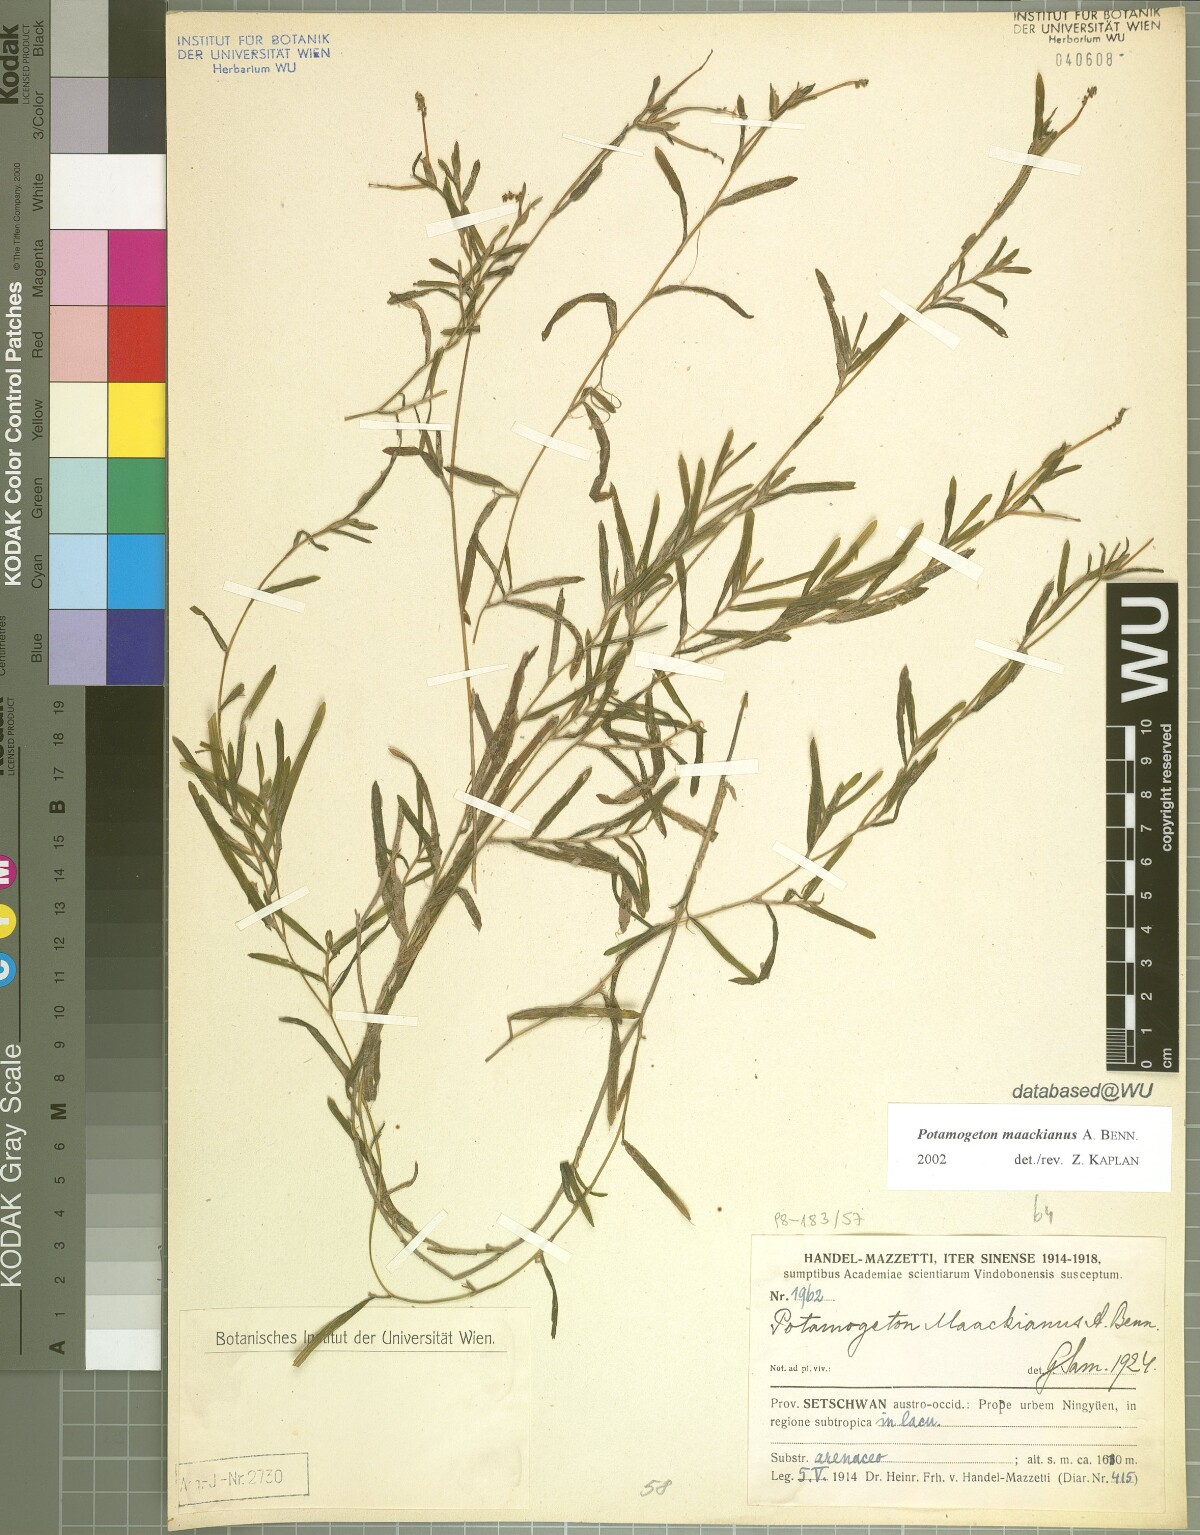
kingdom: Plantae
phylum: Tracheophyta
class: Liliopsida
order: Alismatales
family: Potamogetonaceae
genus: Potamogeton
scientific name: Potamogeton maackianus
